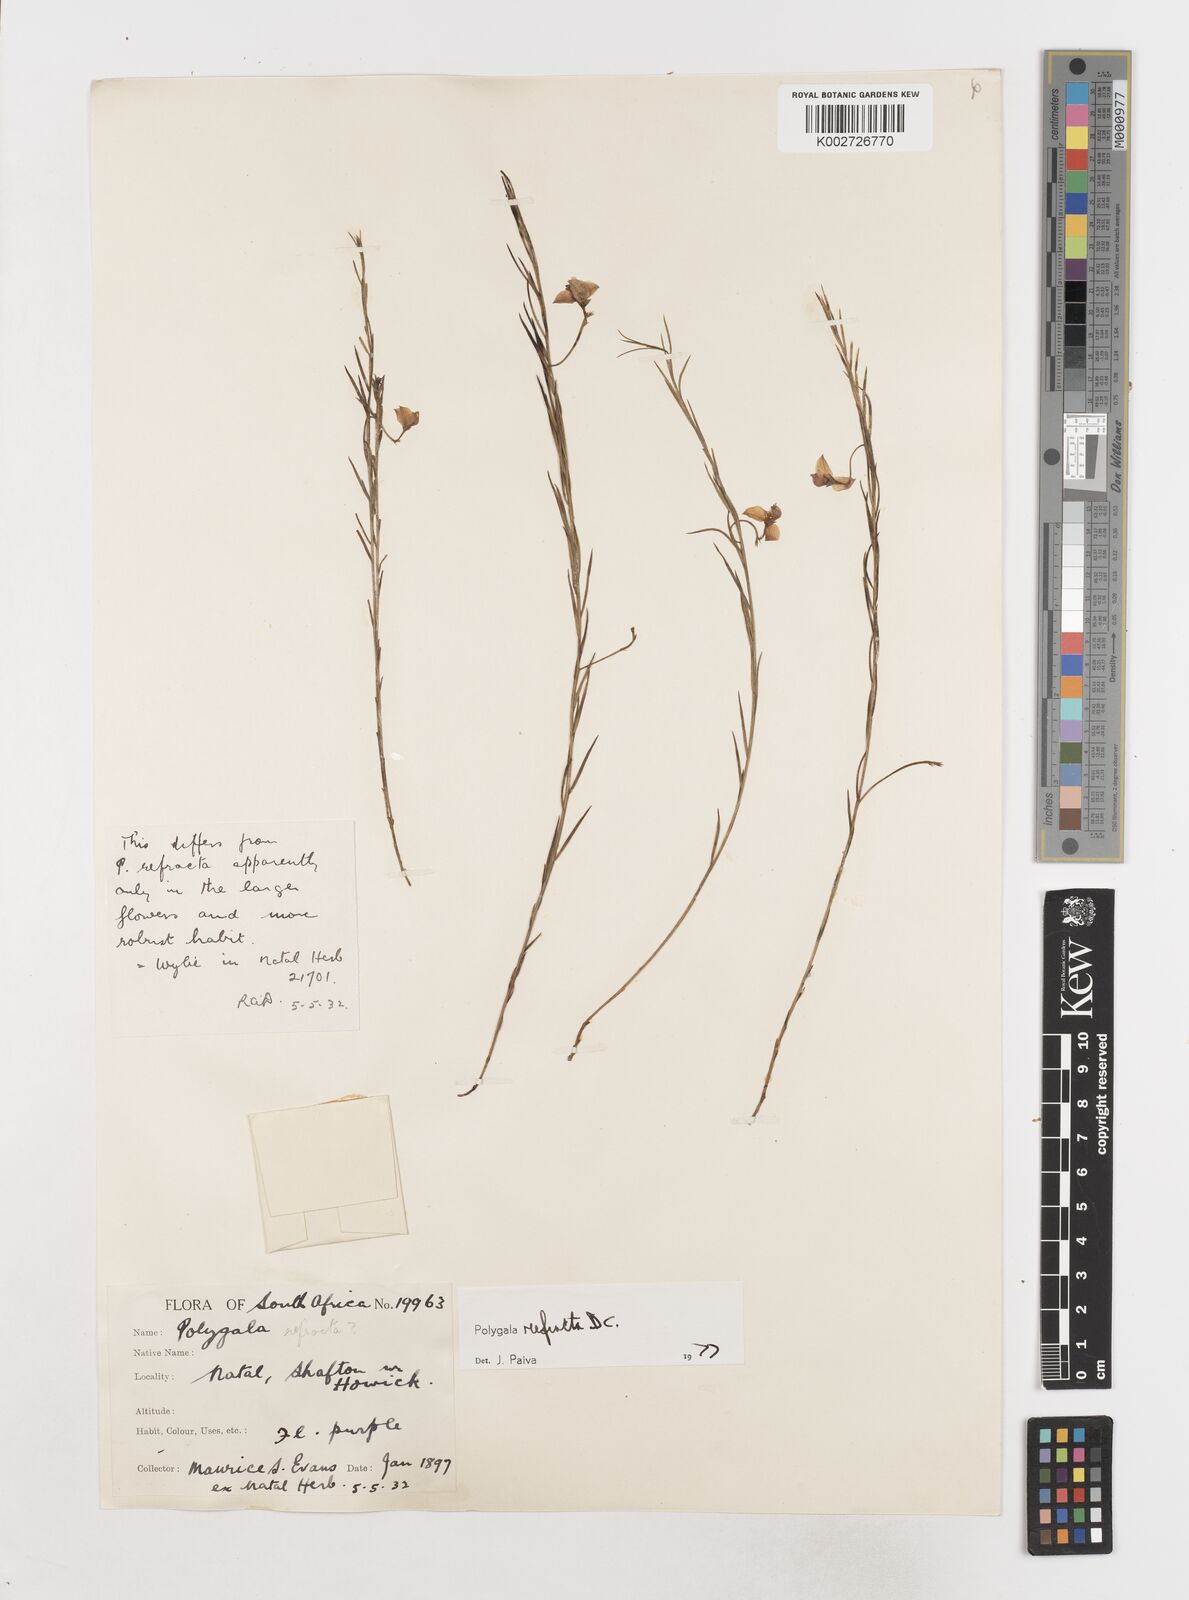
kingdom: Plantae
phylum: Tracheophyta
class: Magnoliopsida
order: Fabales
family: Polygalaceae
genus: Polygala
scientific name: Polygala refracta
